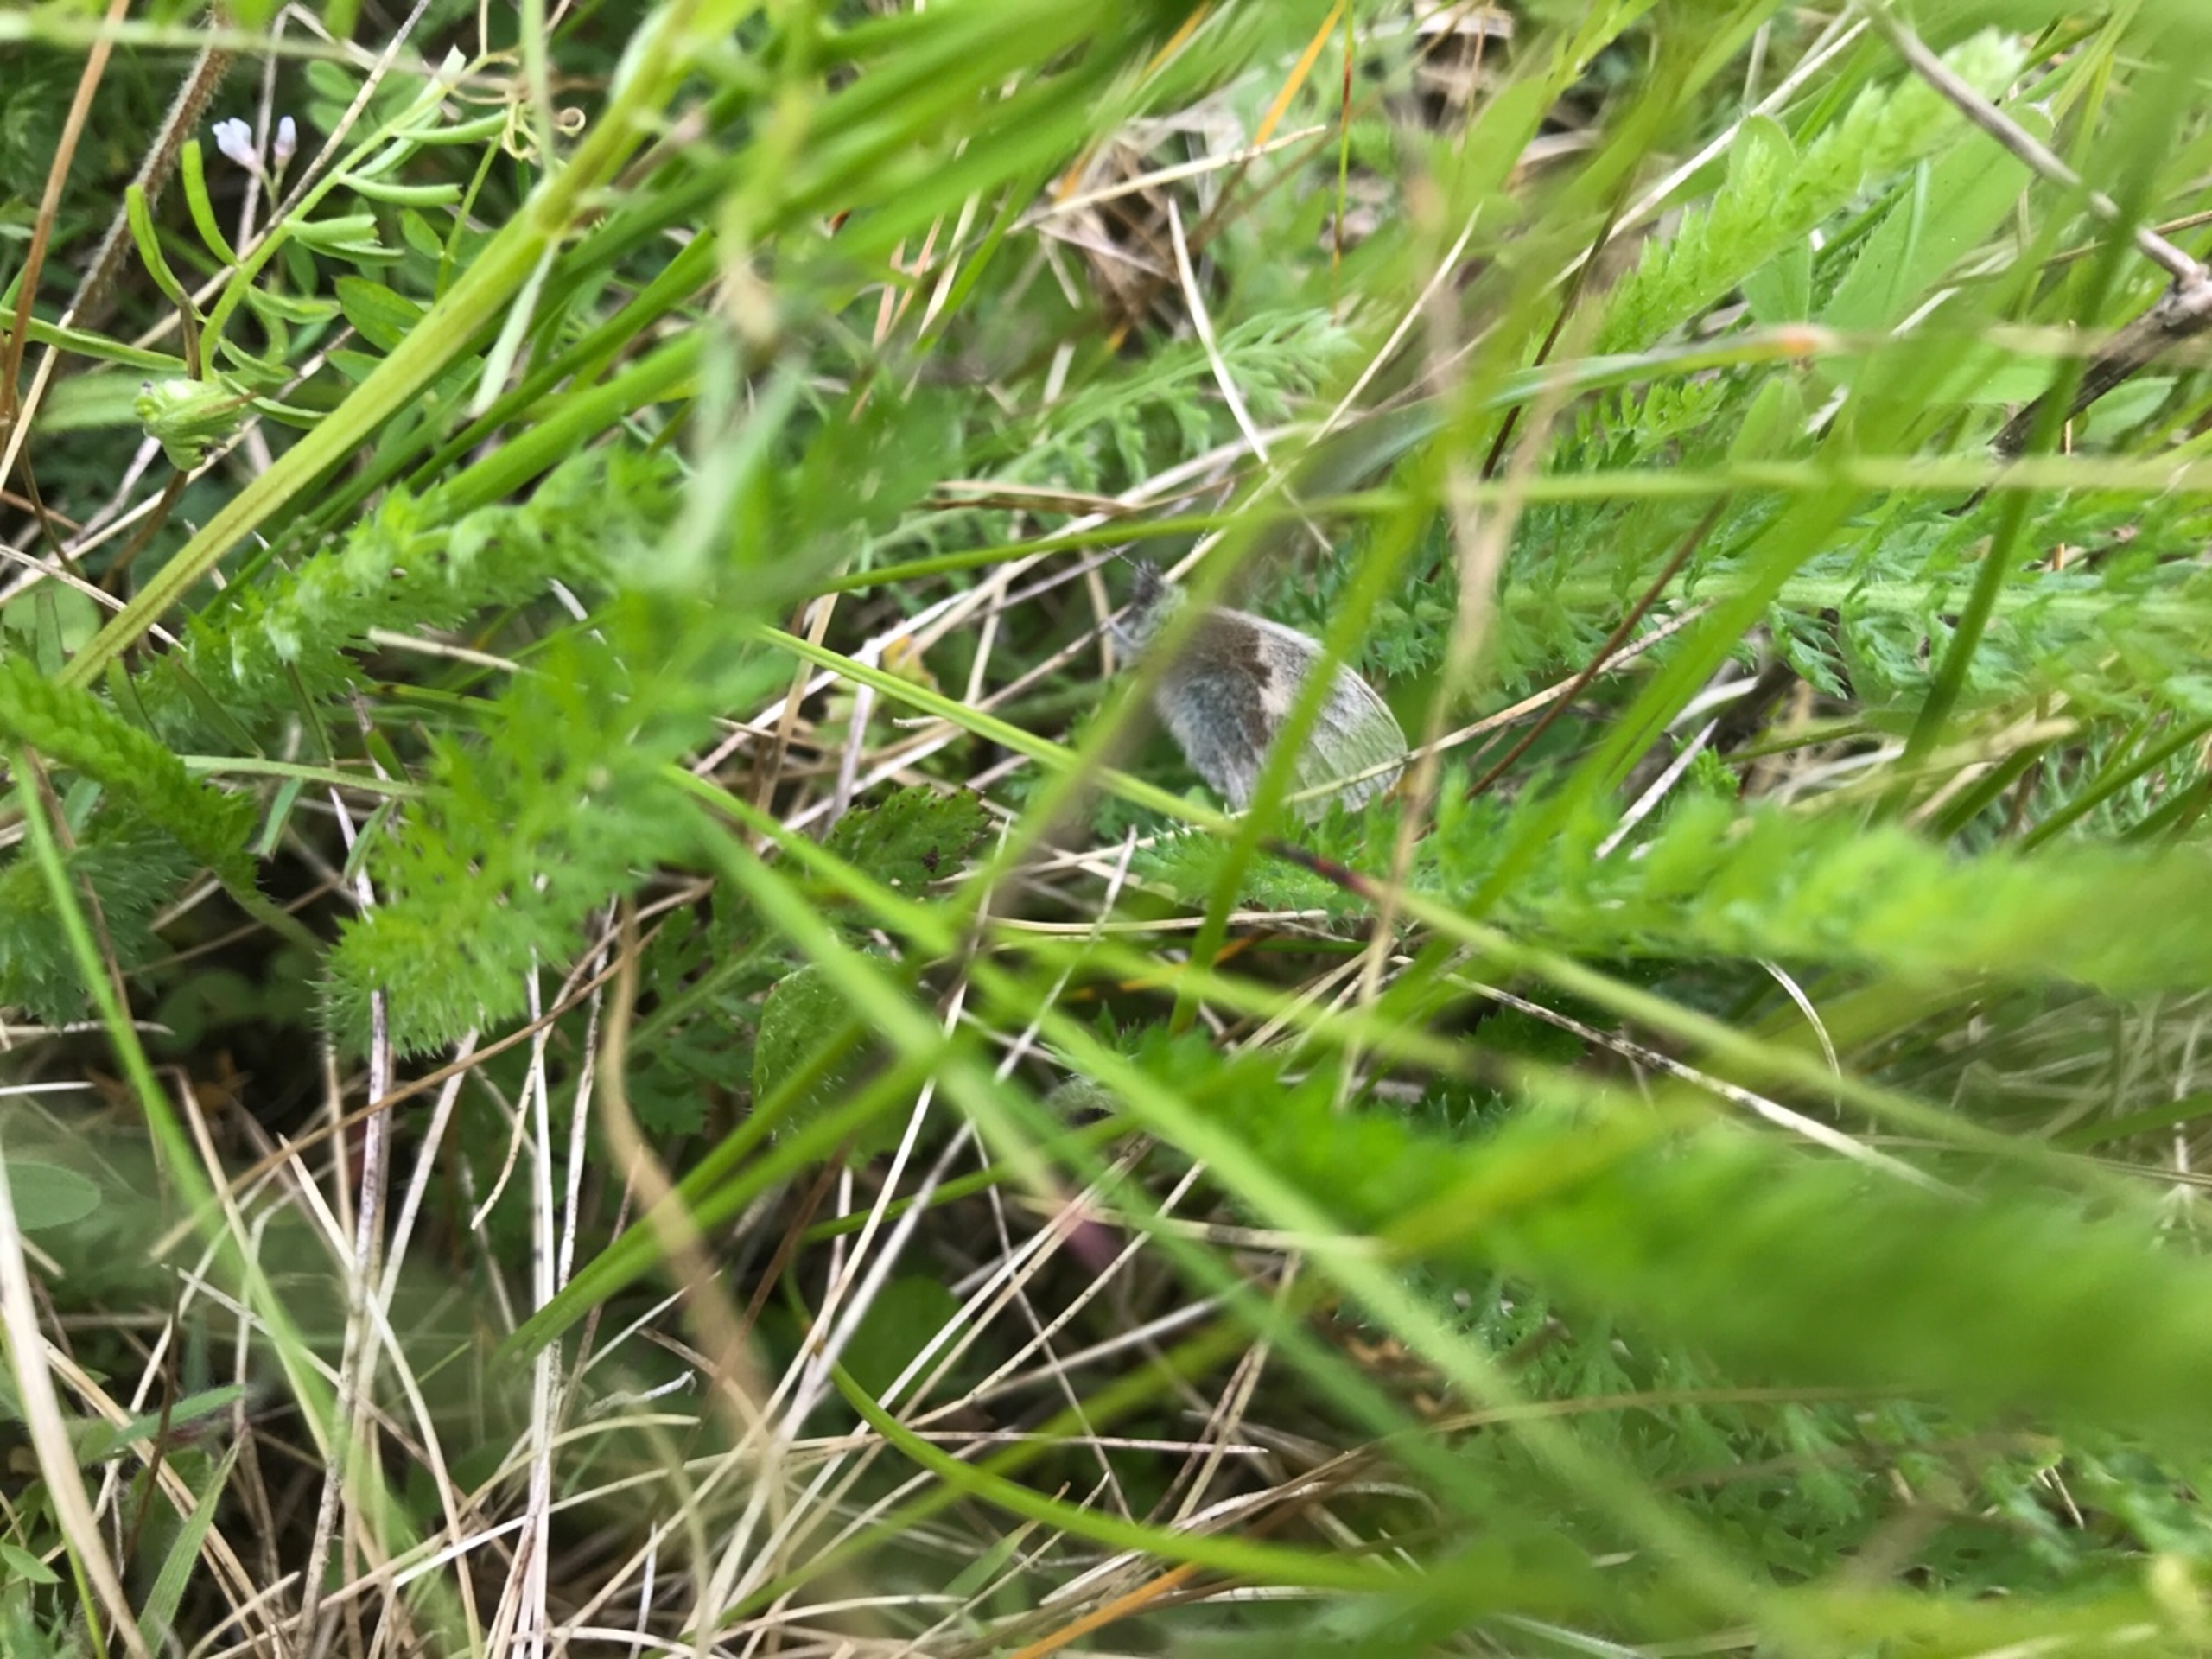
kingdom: Animalia
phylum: Arthropoda
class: Insecta
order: Lepidoptera
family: Nymphalidae
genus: Coenonympha
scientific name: Coenonympha pamphilus
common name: Okkergul randøje
